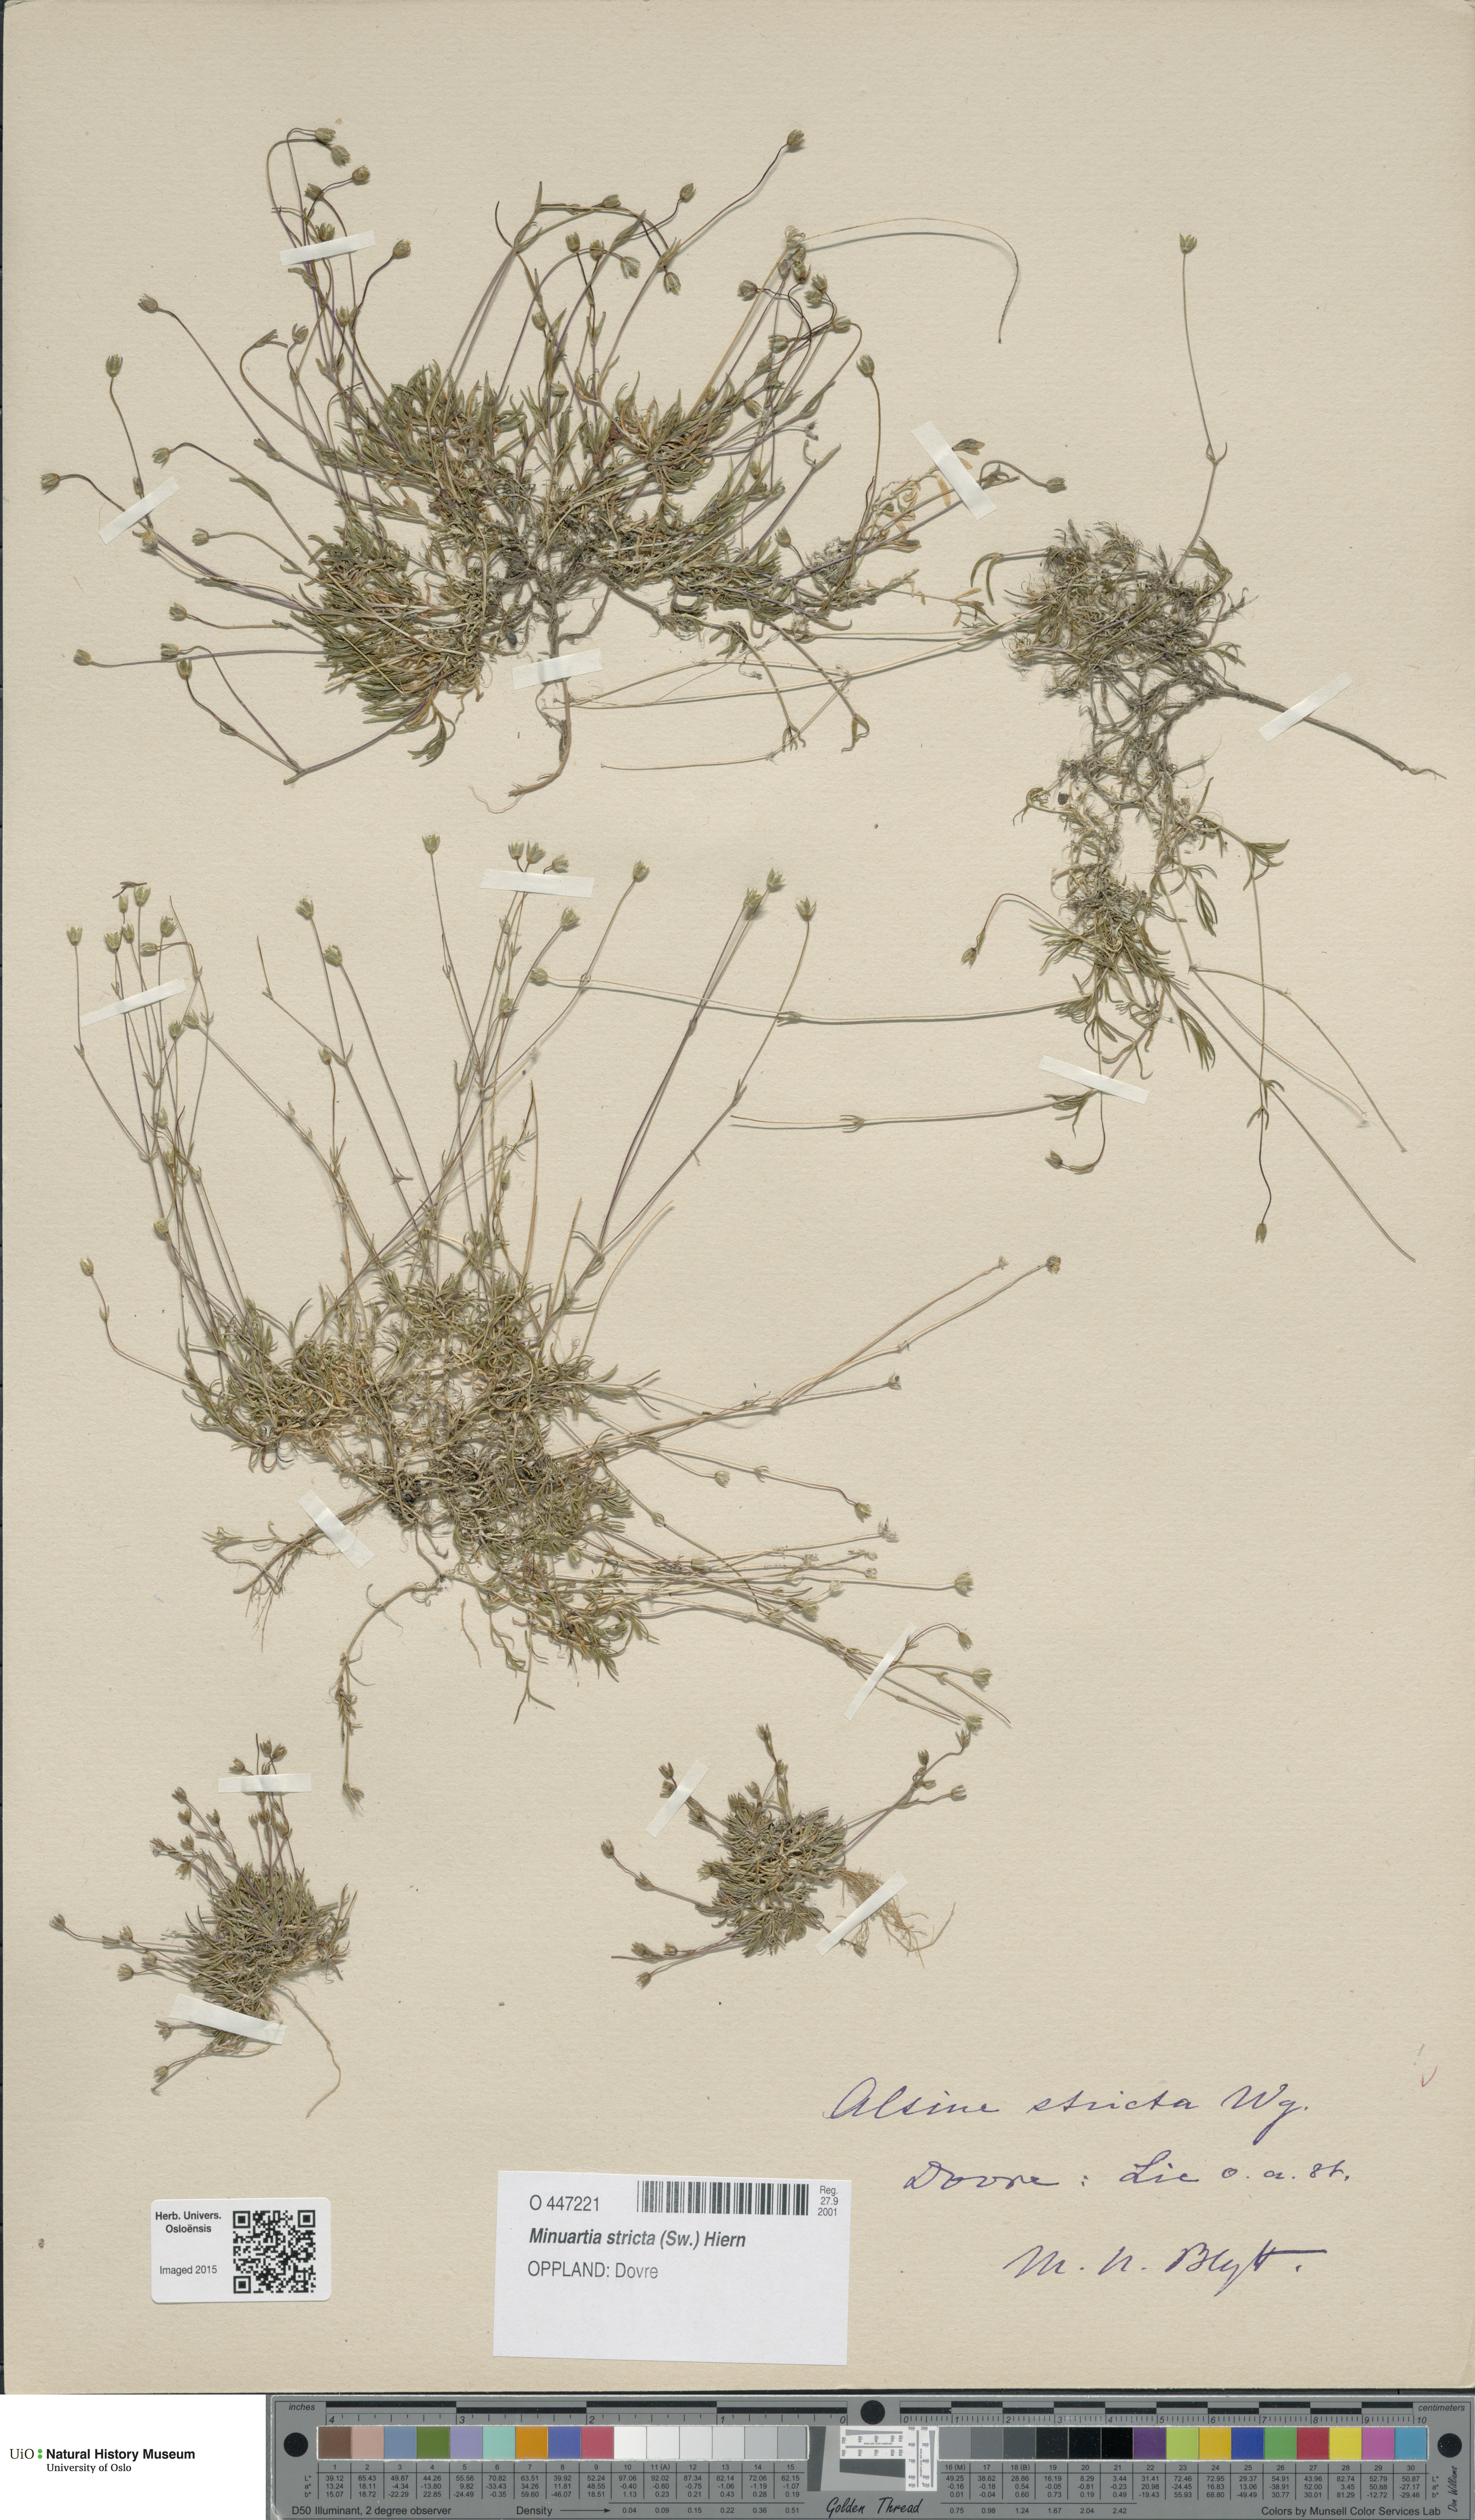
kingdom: Plantae
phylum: Tracheophyta
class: Magnoliopsida
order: Caryophyllales
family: Caryophyllaceae
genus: Sabulina
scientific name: Sabulina stricta
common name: Bog sandwort
